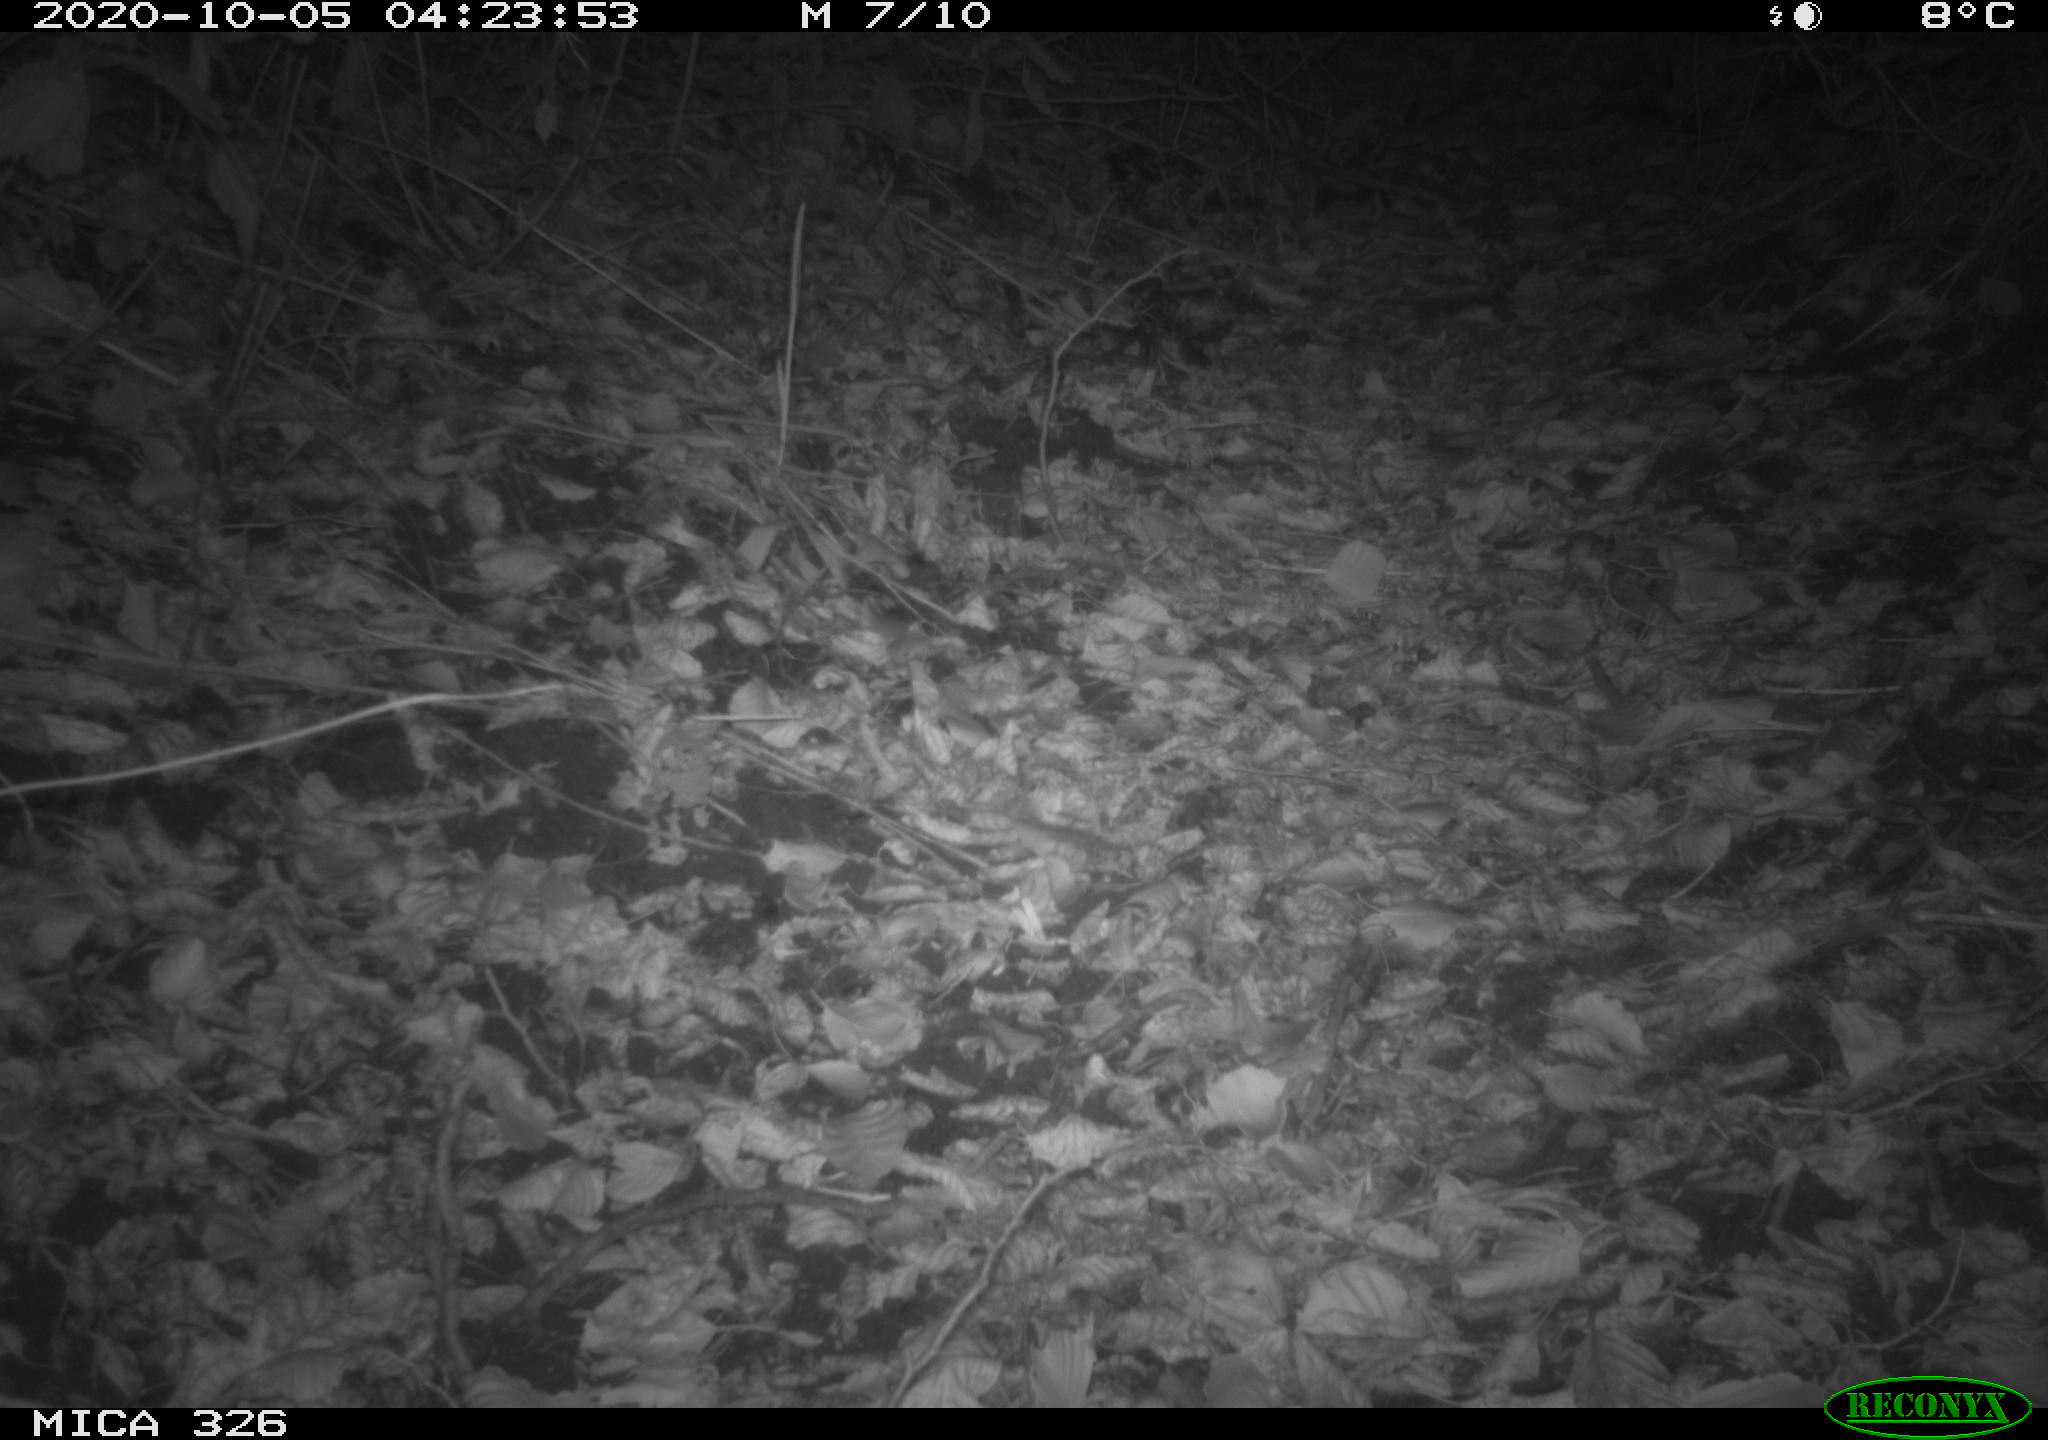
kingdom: Animalia
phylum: Chordata
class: Mammalia
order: Carnivora
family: Mustelidae
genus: Lutra
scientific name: Lutra lutra
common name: European otter
